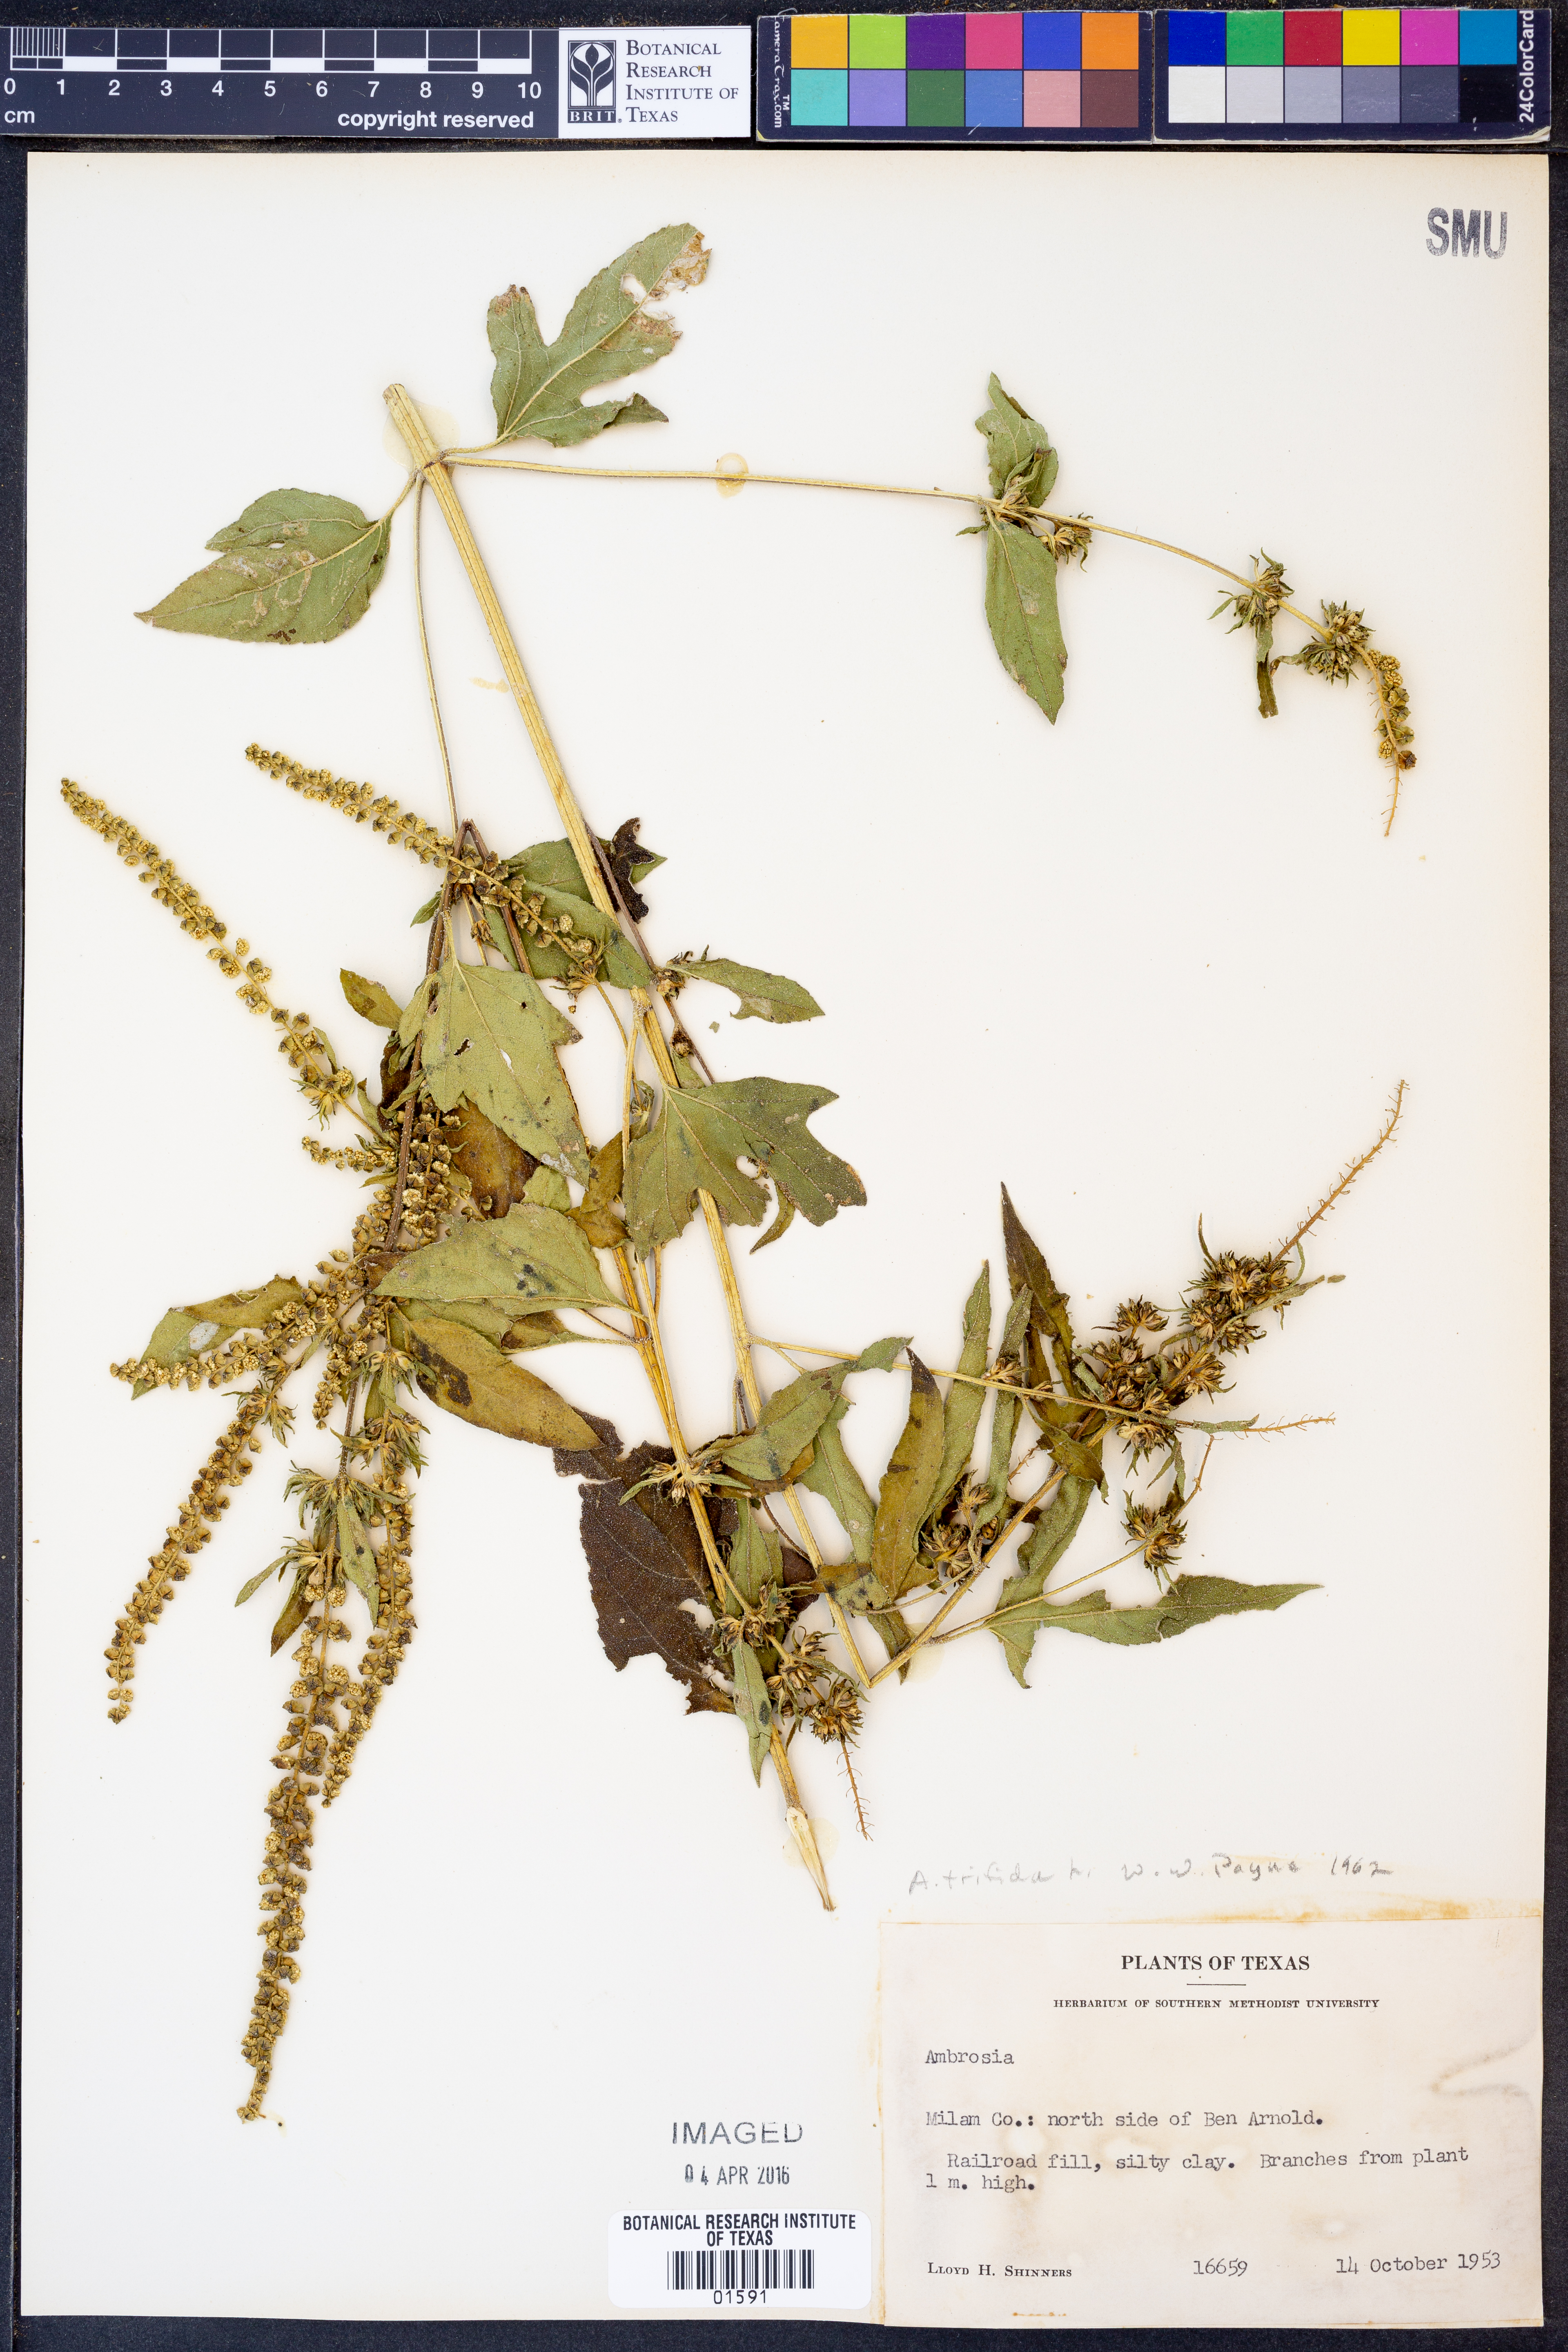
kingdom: Plantae
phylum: Tracheophyta
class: Magnoliopsida
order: Asterales
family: Asteraceae
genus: Ambrosia
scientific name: Ambrosia trifida
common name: Giant ragweed
